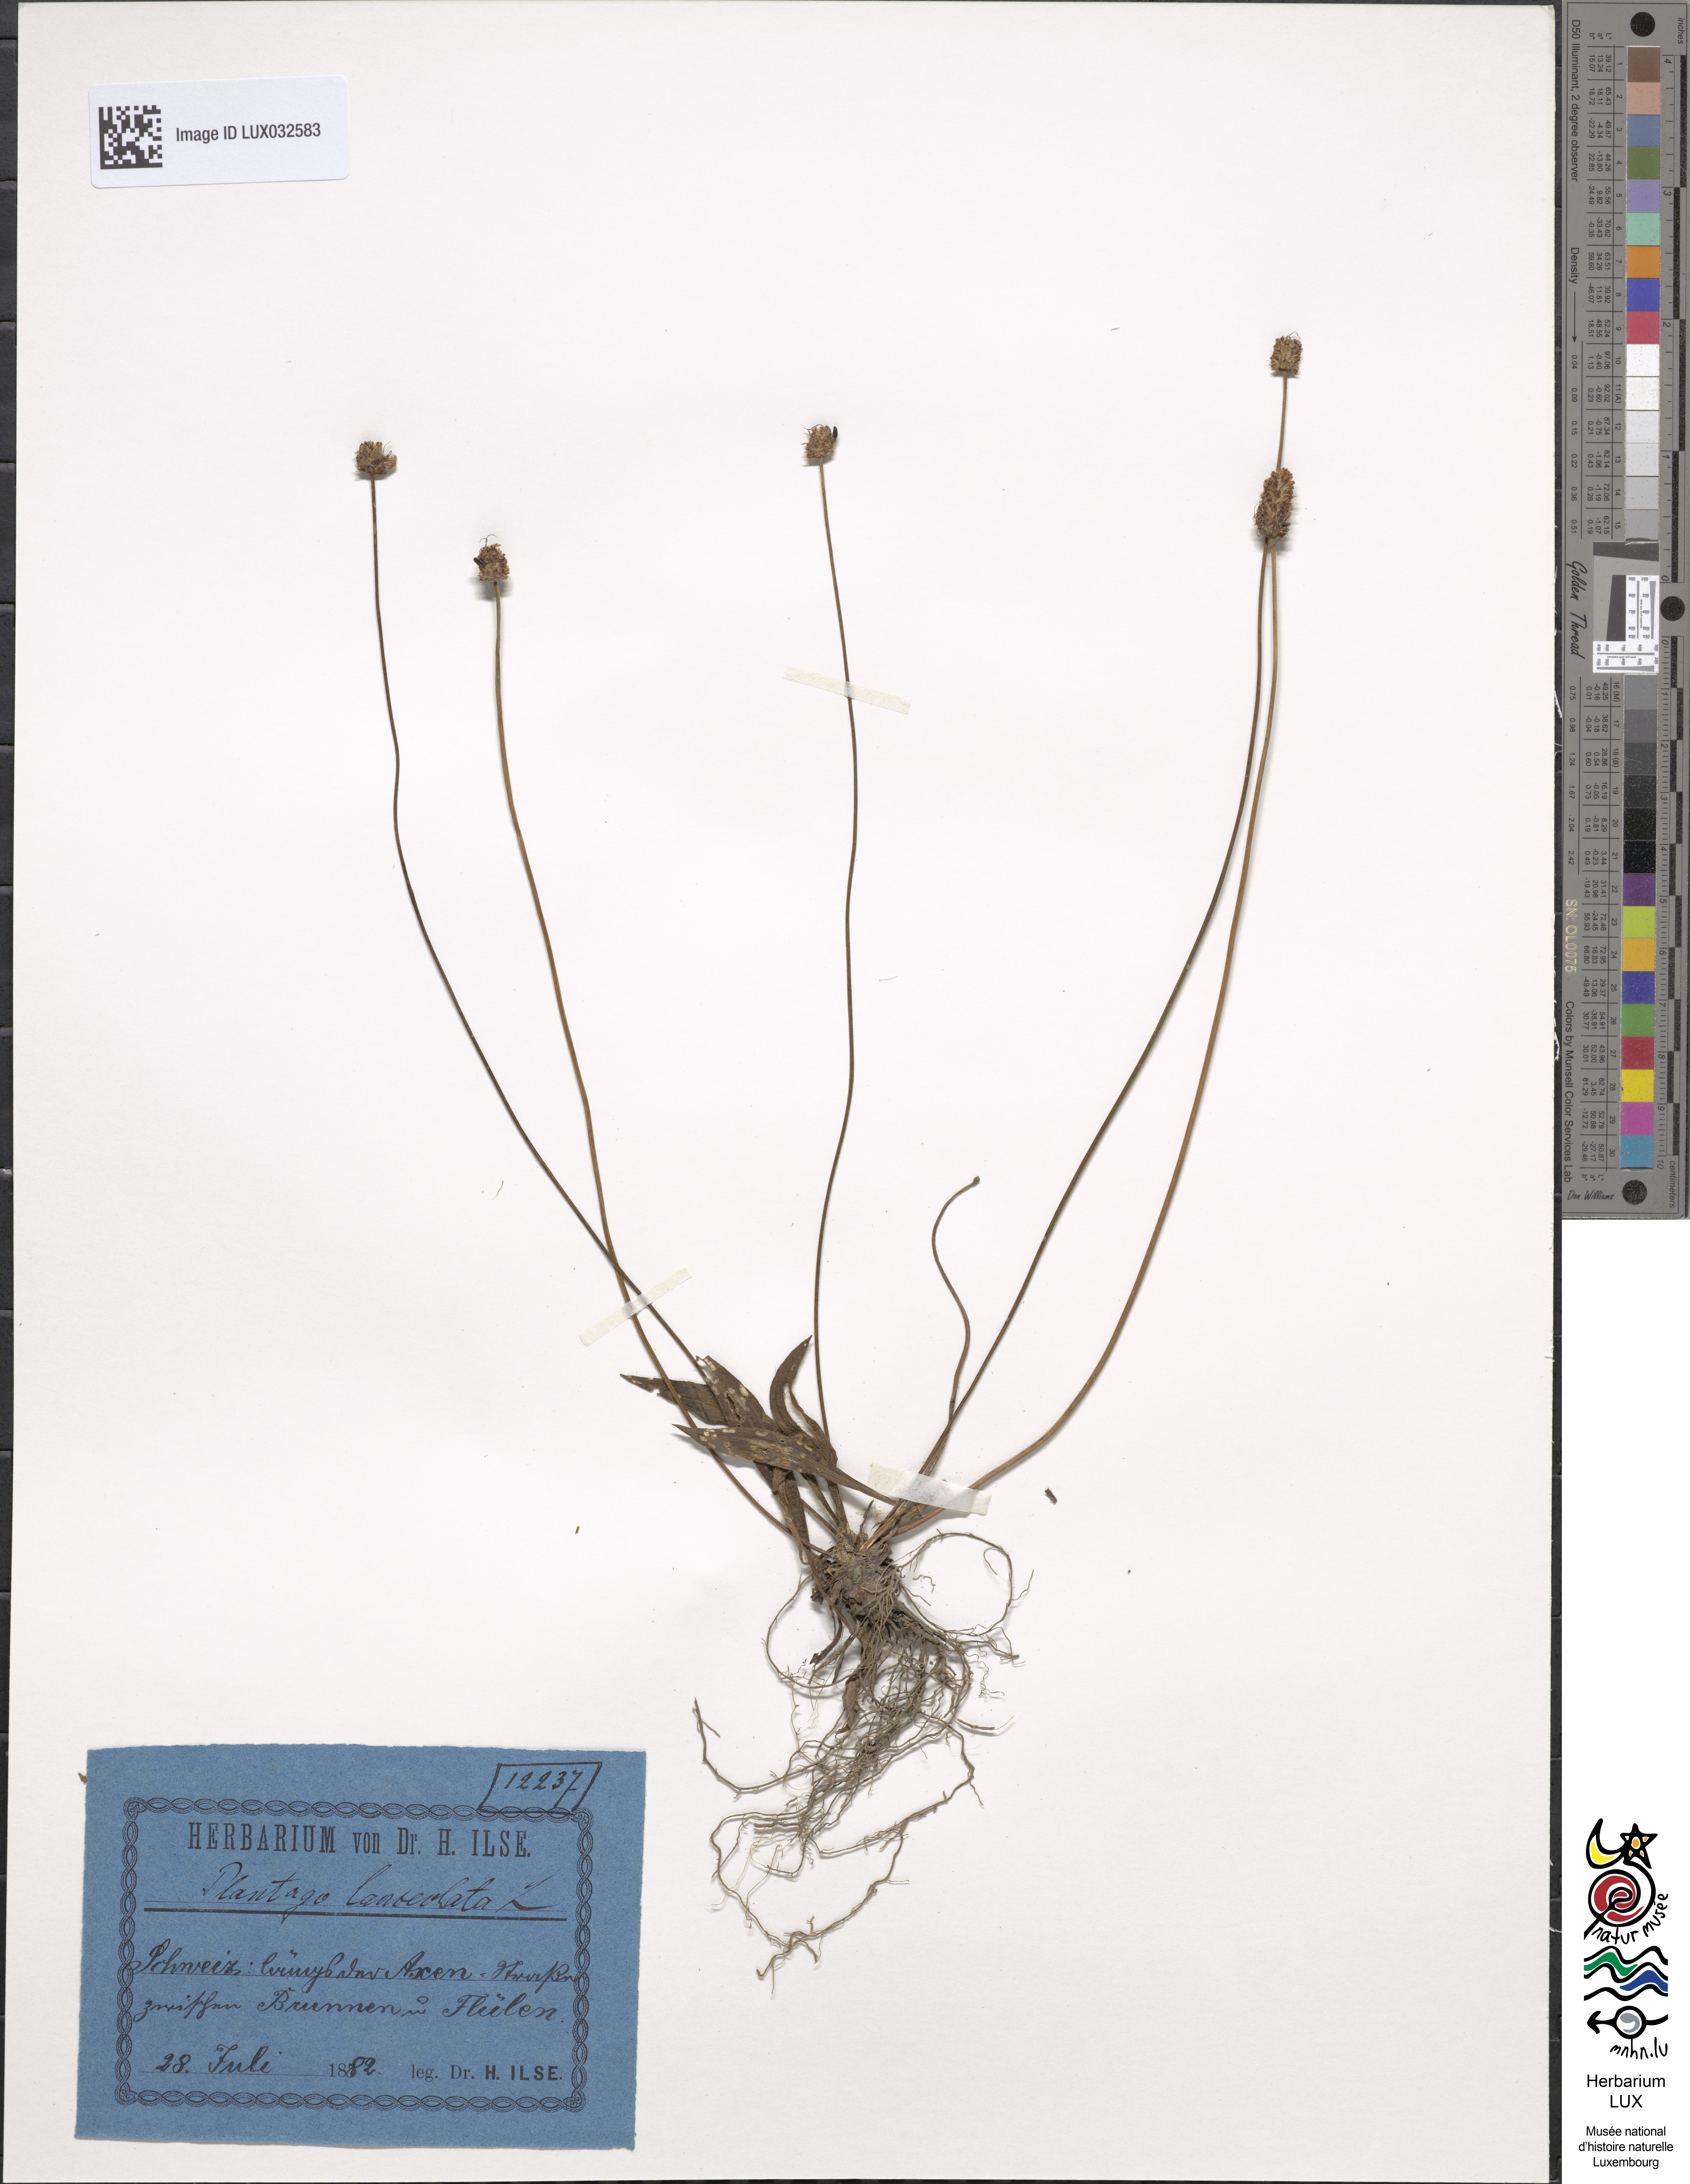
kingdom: Plantae
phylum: Tracheophyta
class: Magnoliopsida
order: Lamiales
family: Plantaginaceae
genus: Plantago
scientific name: Plantago lanceolata
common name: Ribwort plantain
